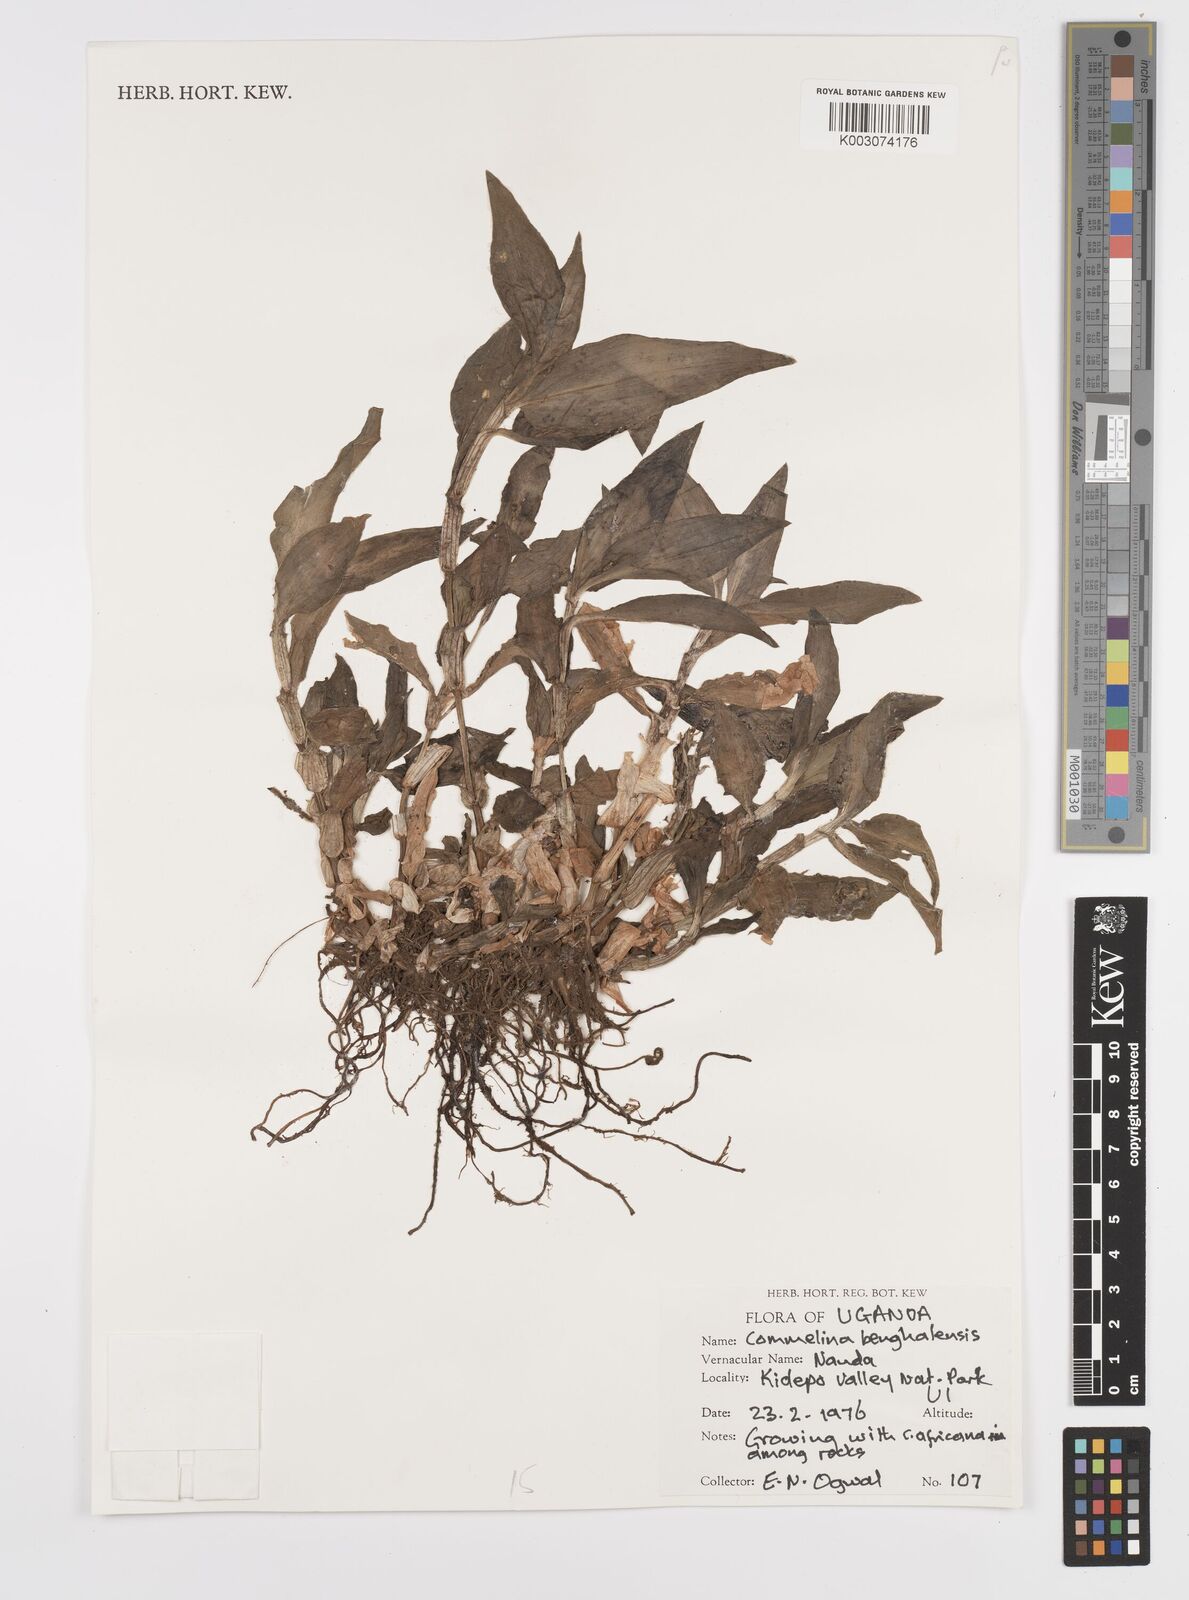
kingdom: Plantae
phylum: Tracheophyta
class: Liliopsida
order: Commelinales
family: Commelinaceae
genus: Commelina
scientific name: Commelina benghalensis
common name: Jio
